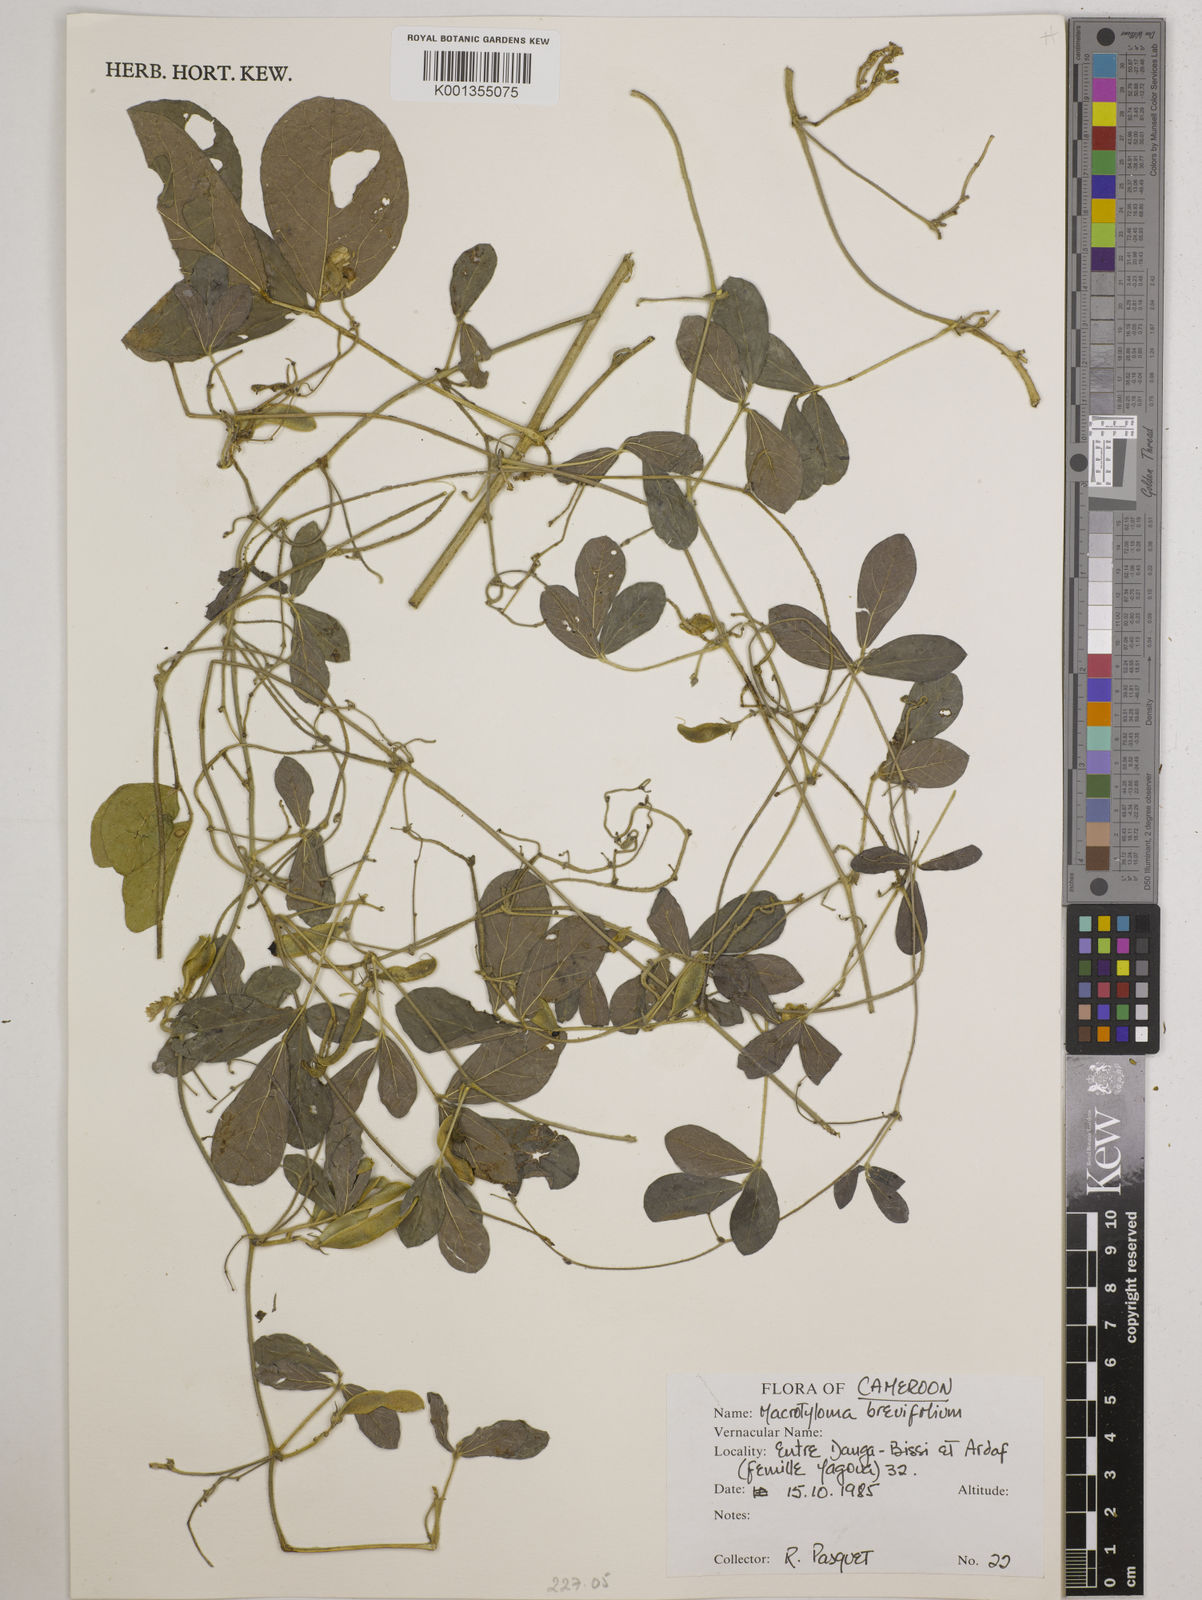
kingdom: Plantae
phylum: Tracheophyta
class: Magnoliopsida
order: Fabales
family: Fabaceae
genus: Macrotyloma
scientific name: Macrotyloma brevicaule
